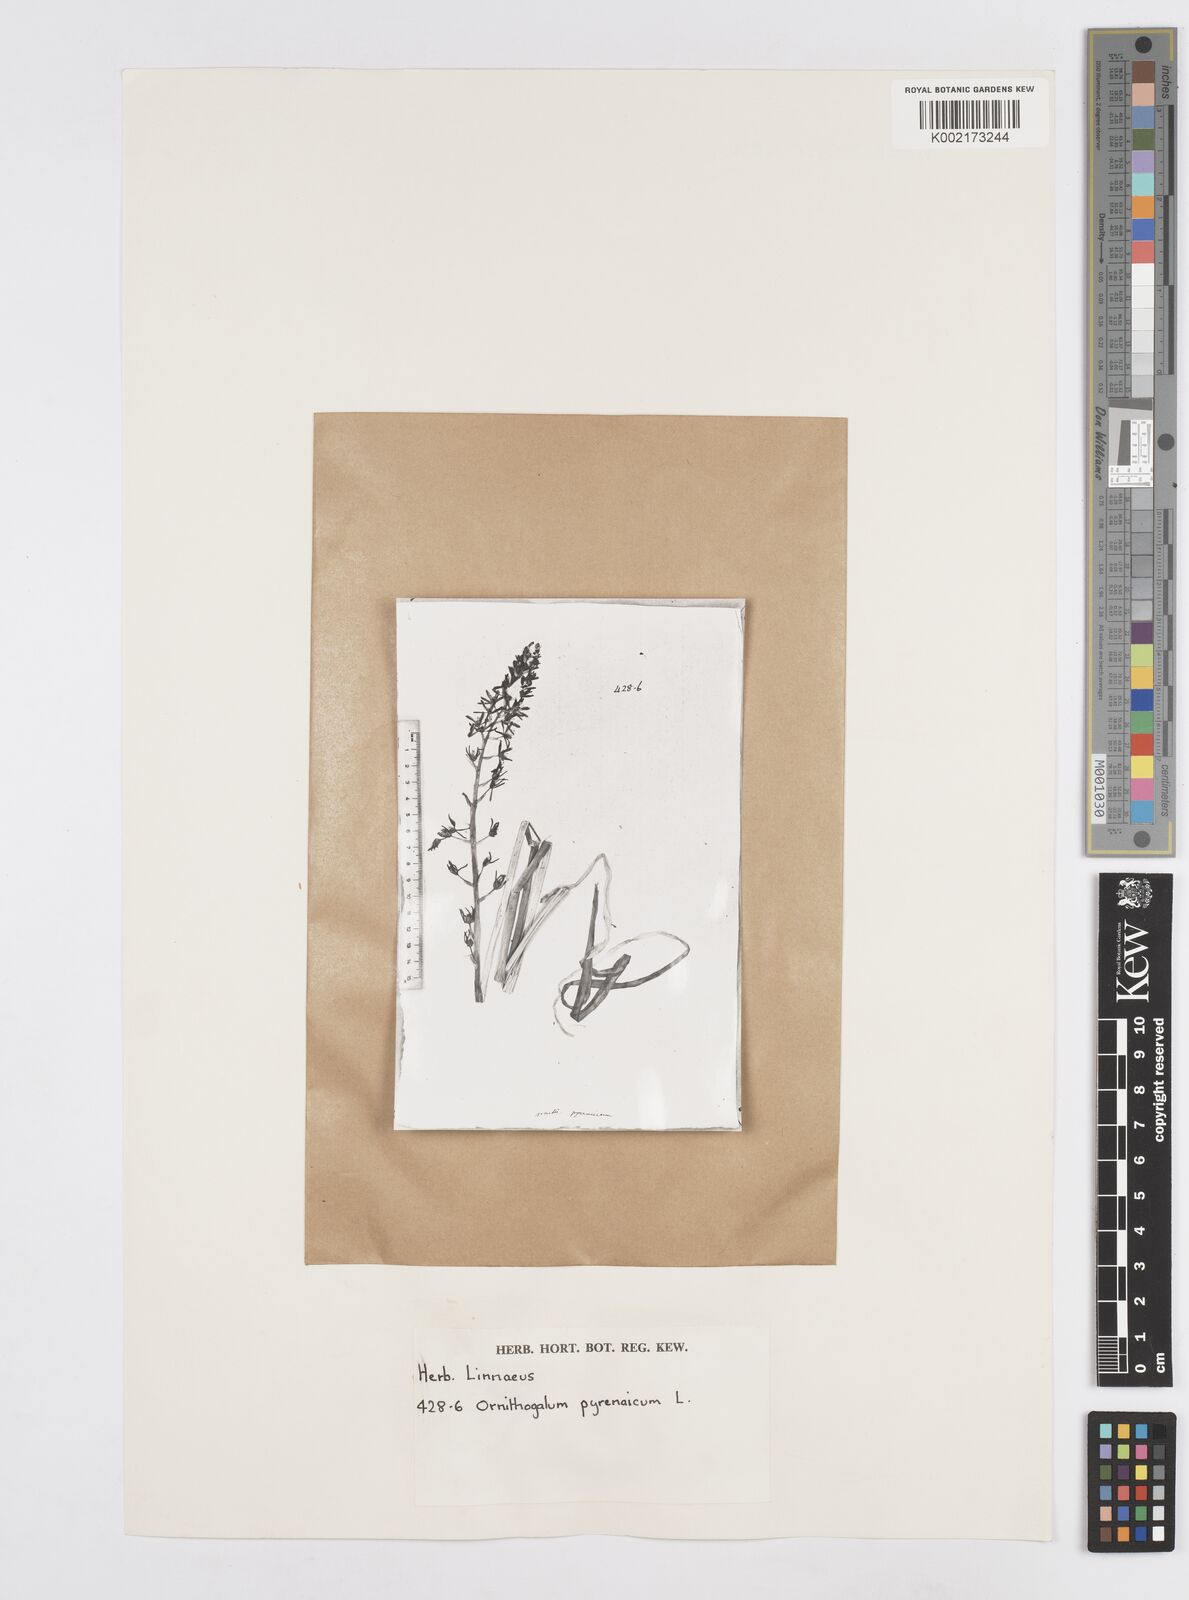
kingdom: Plantae
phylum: Tracheophyta
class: Liliopsida
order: Asparagales
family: Asparagaceae
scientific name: Asparagaceae
